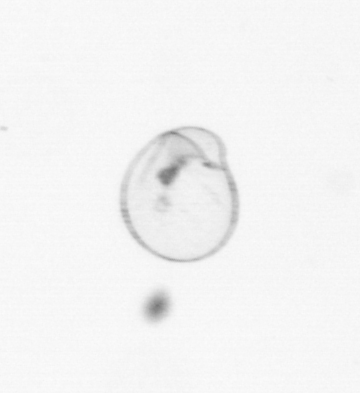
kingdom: Chromista
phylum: Myzozoa
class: Dinophyceae
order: Noctilucales
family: Noctilucaceae
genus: Noctiluca
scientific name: Noctiluca scintillans
